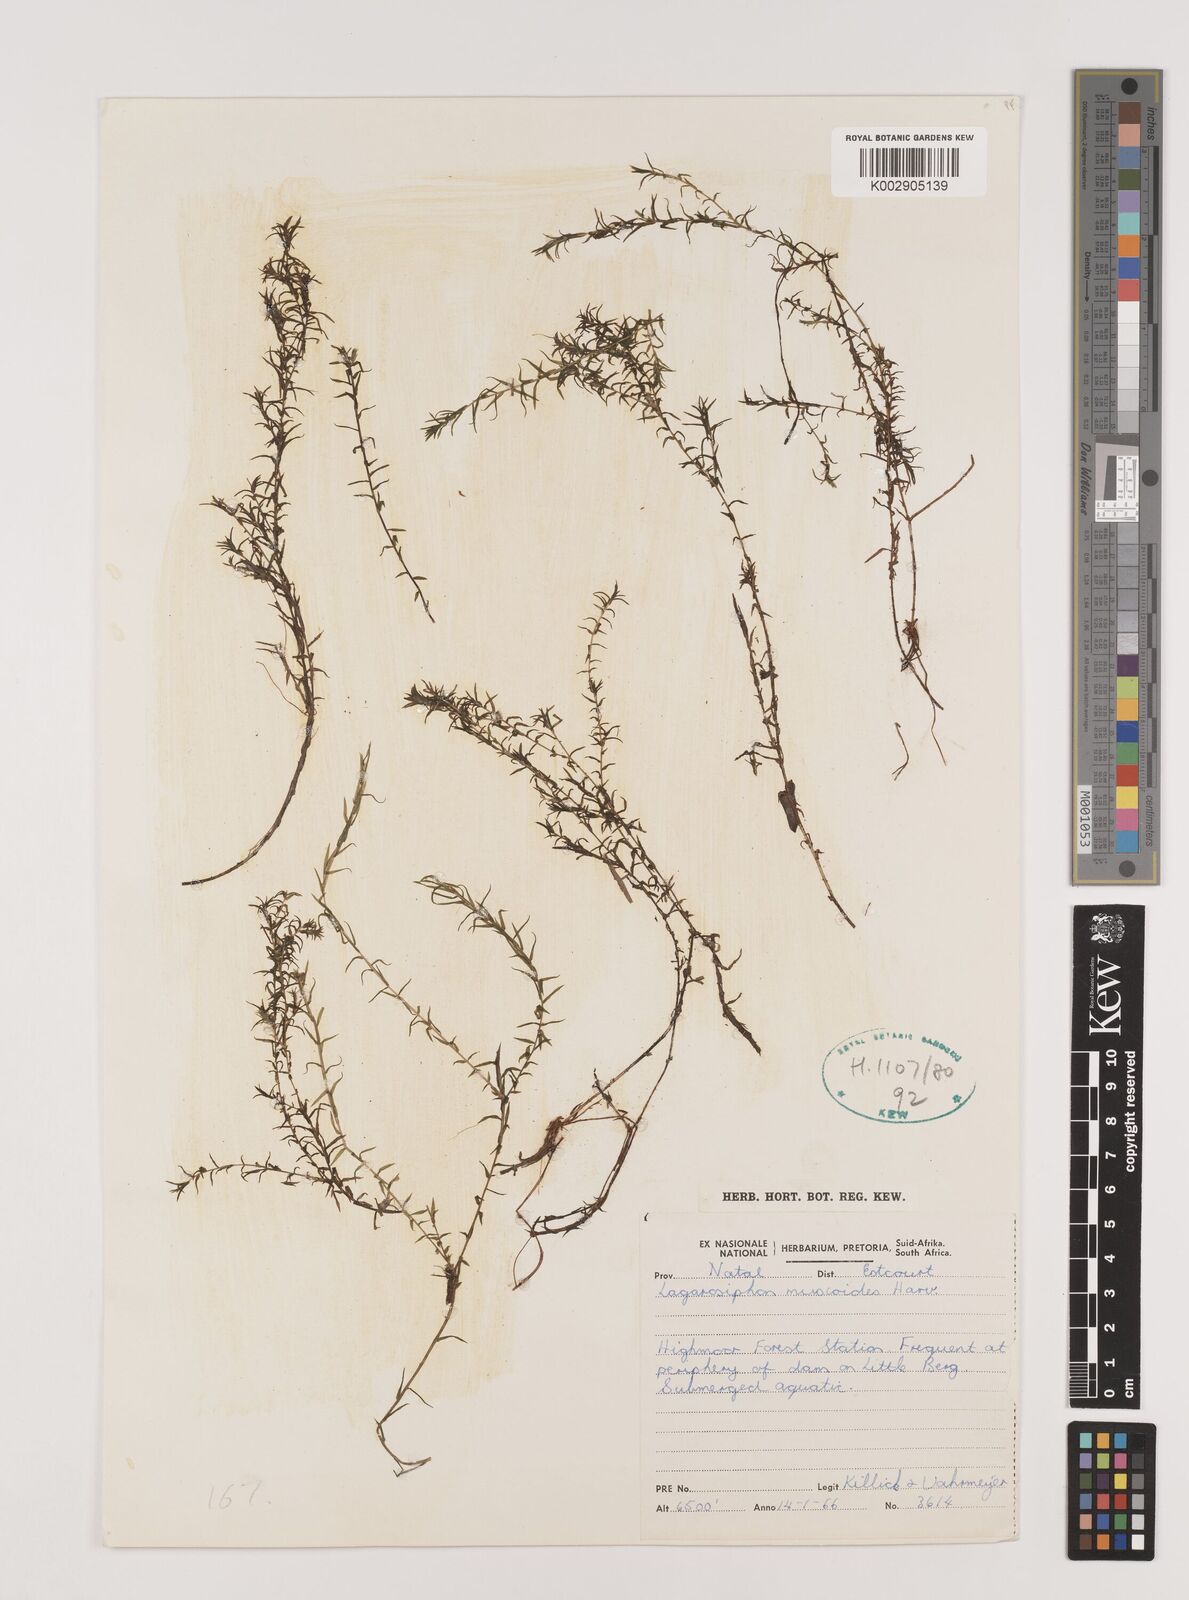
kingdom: Plantae
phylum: Tracheophyta
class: Liliopsida
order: Alismatales
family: Hydrocharitaceae
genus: Lagarosiphon
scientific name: Lagarosiphon muscoides
